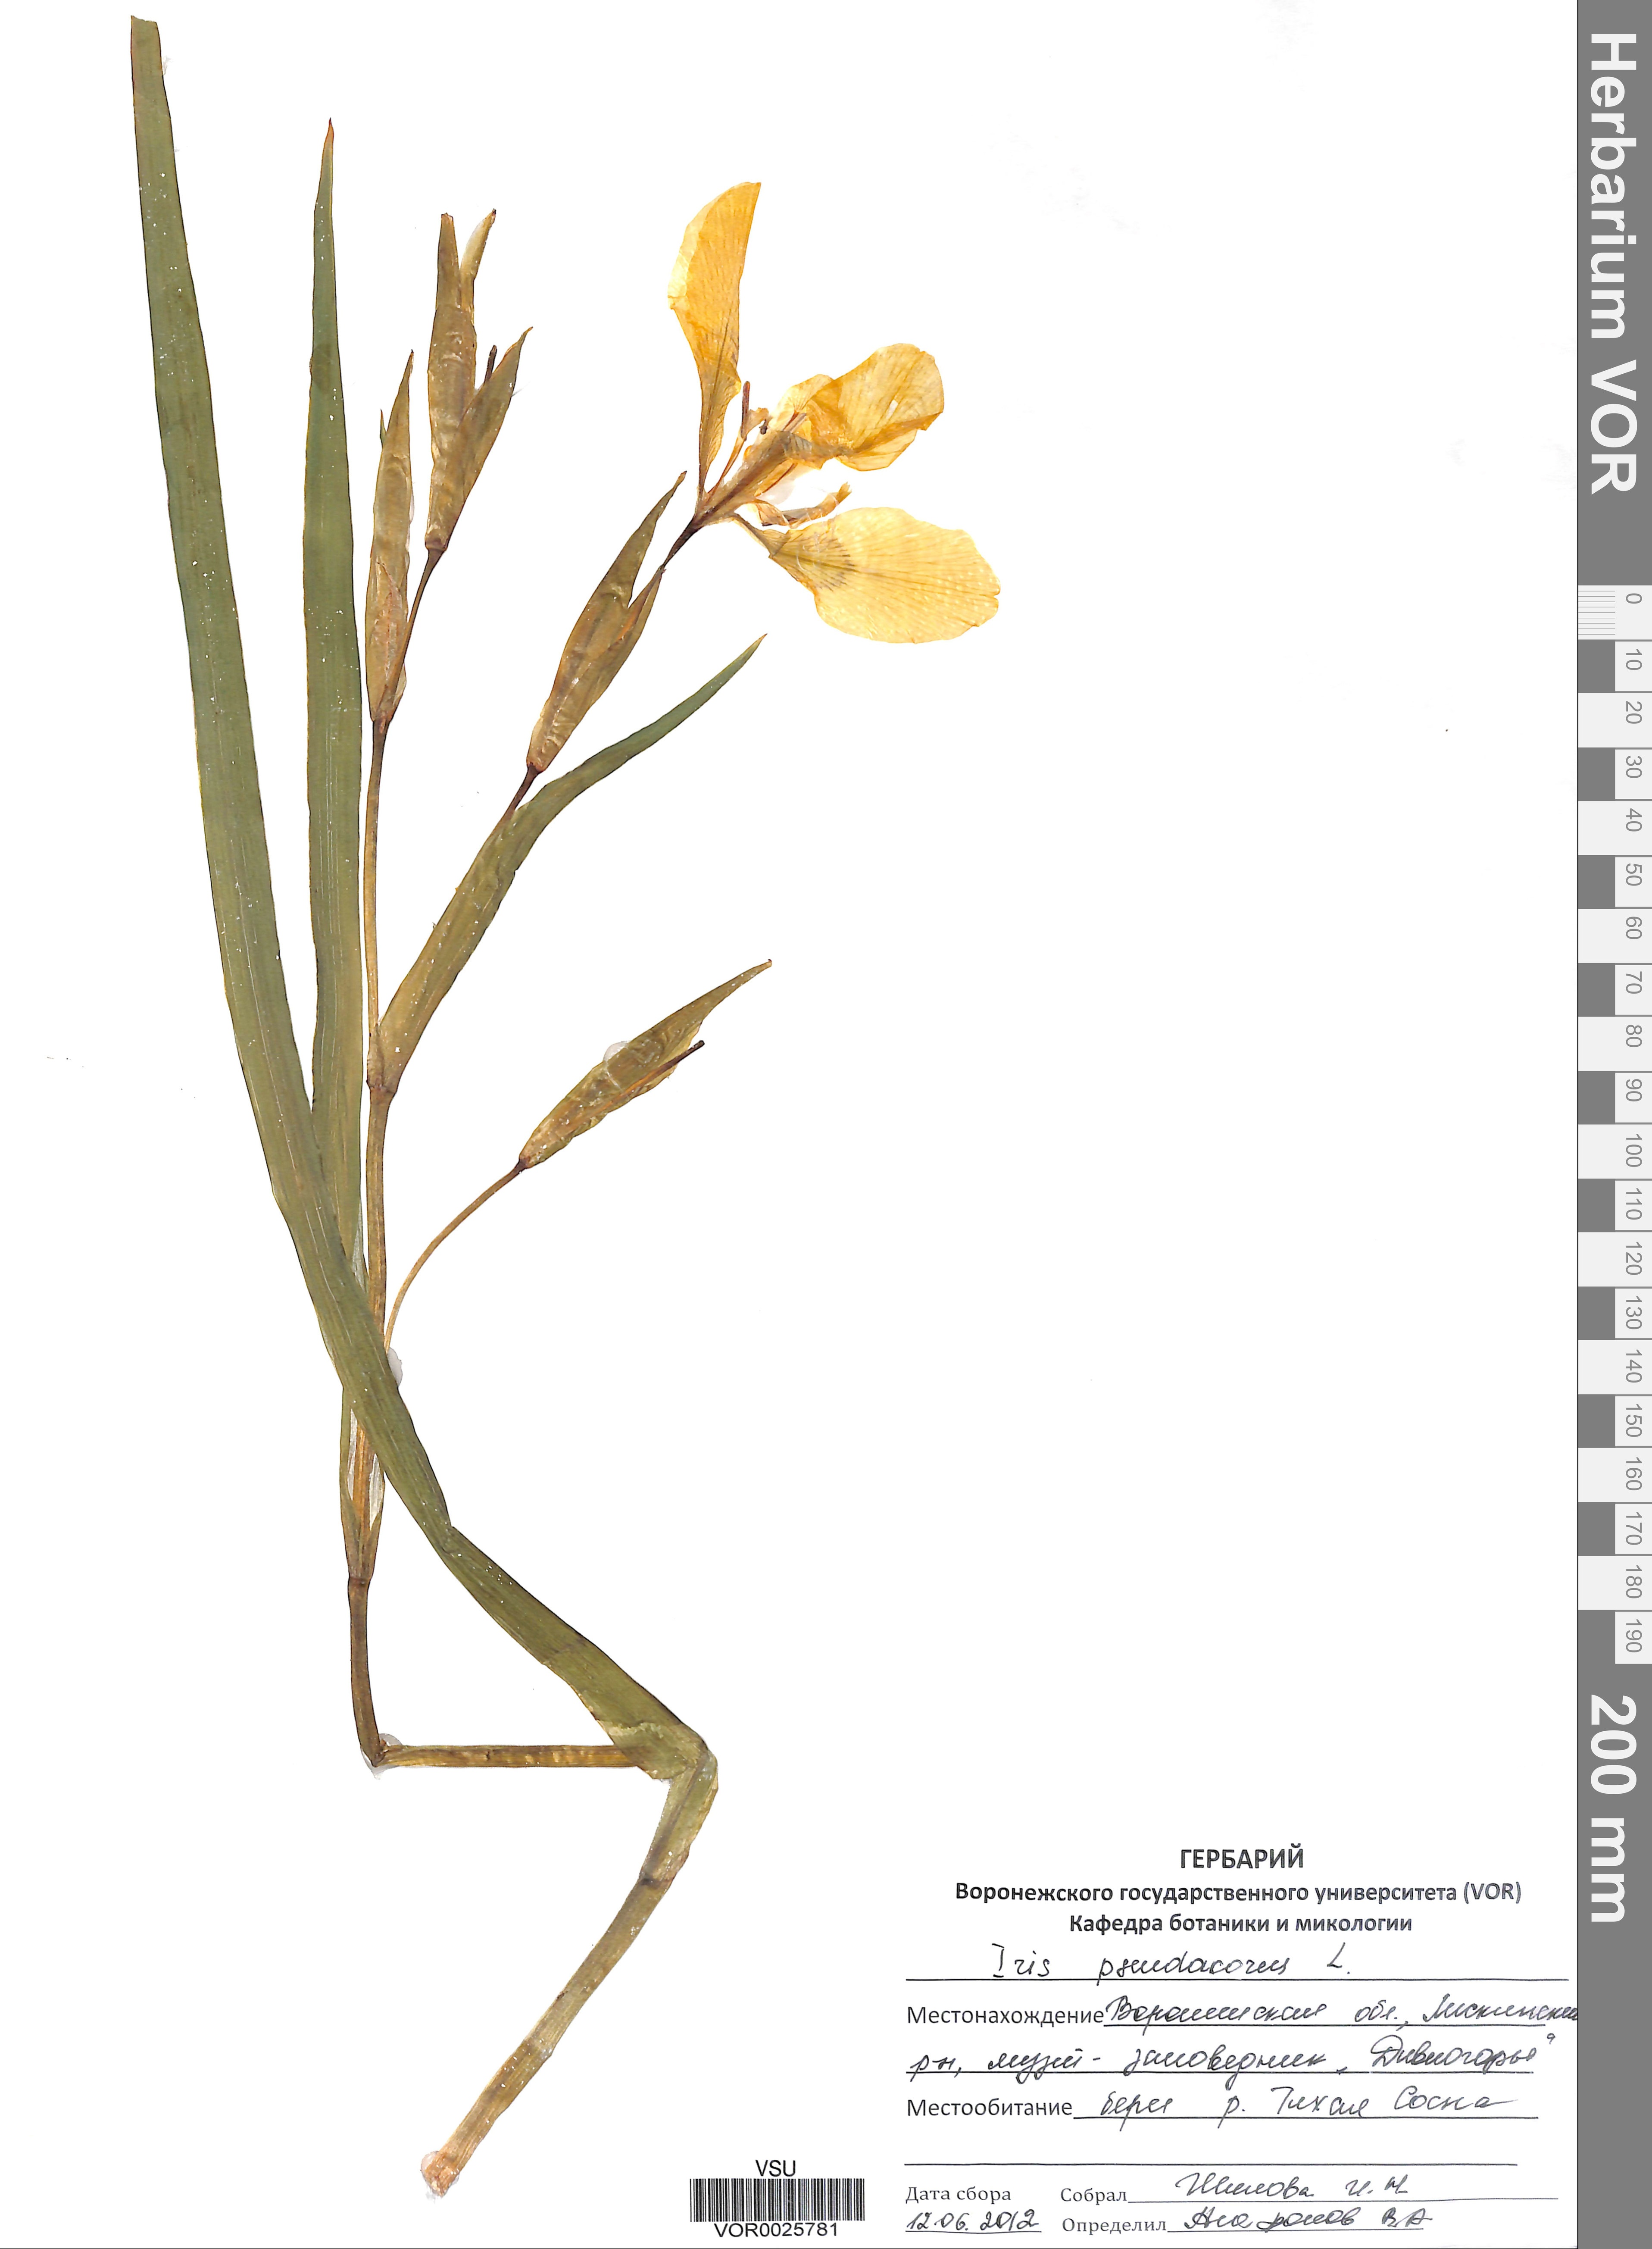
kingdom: Plantae
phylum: Tracheophyta
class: Liliopsida
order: Asparagales
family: Iridaceae
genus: Iris
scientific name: Iris pseudacorus
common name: Yellow flag
